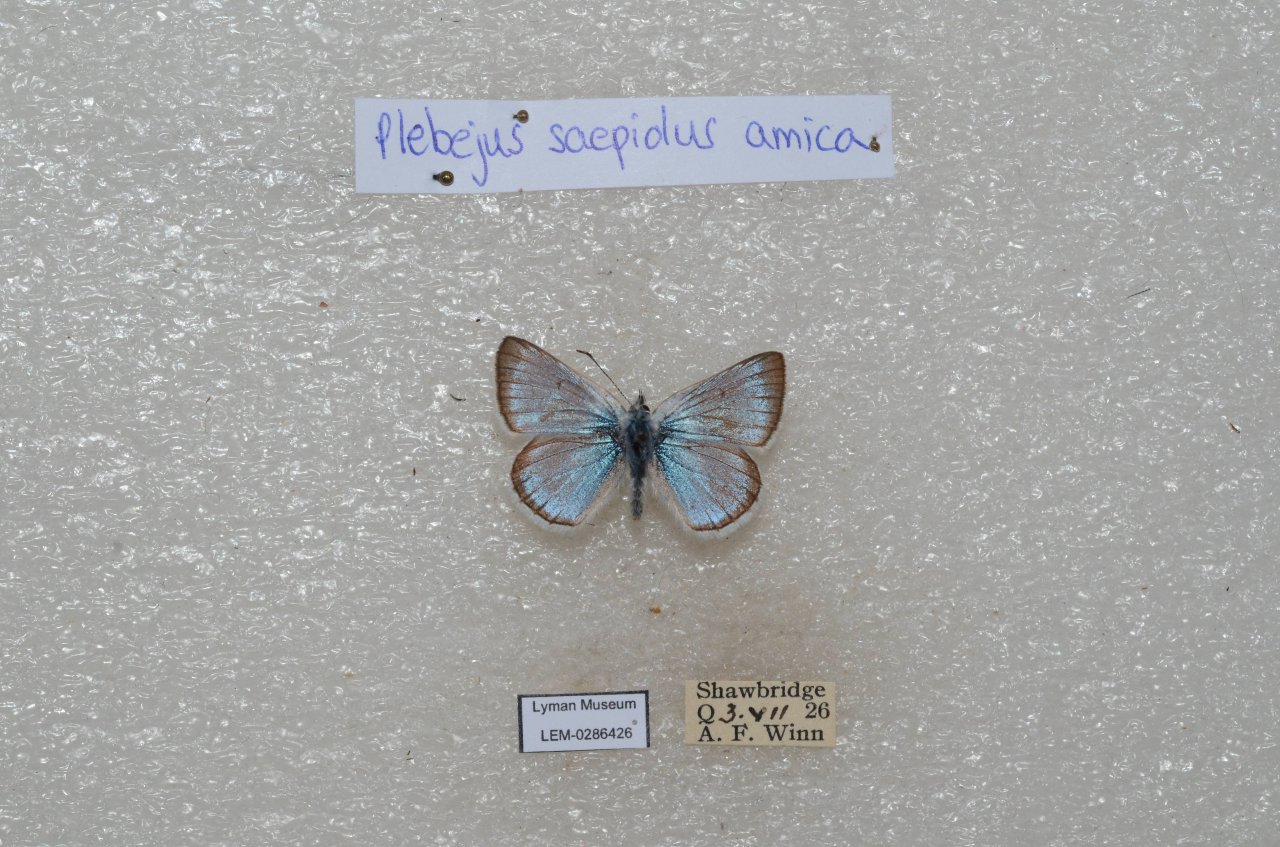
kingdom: Animalia
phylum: Arthropoda
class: Insecta
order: Lepidoptera
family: Lycaenidae
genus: Plebejus
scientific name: Plebejus saepiolus
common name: Greenish Blue
